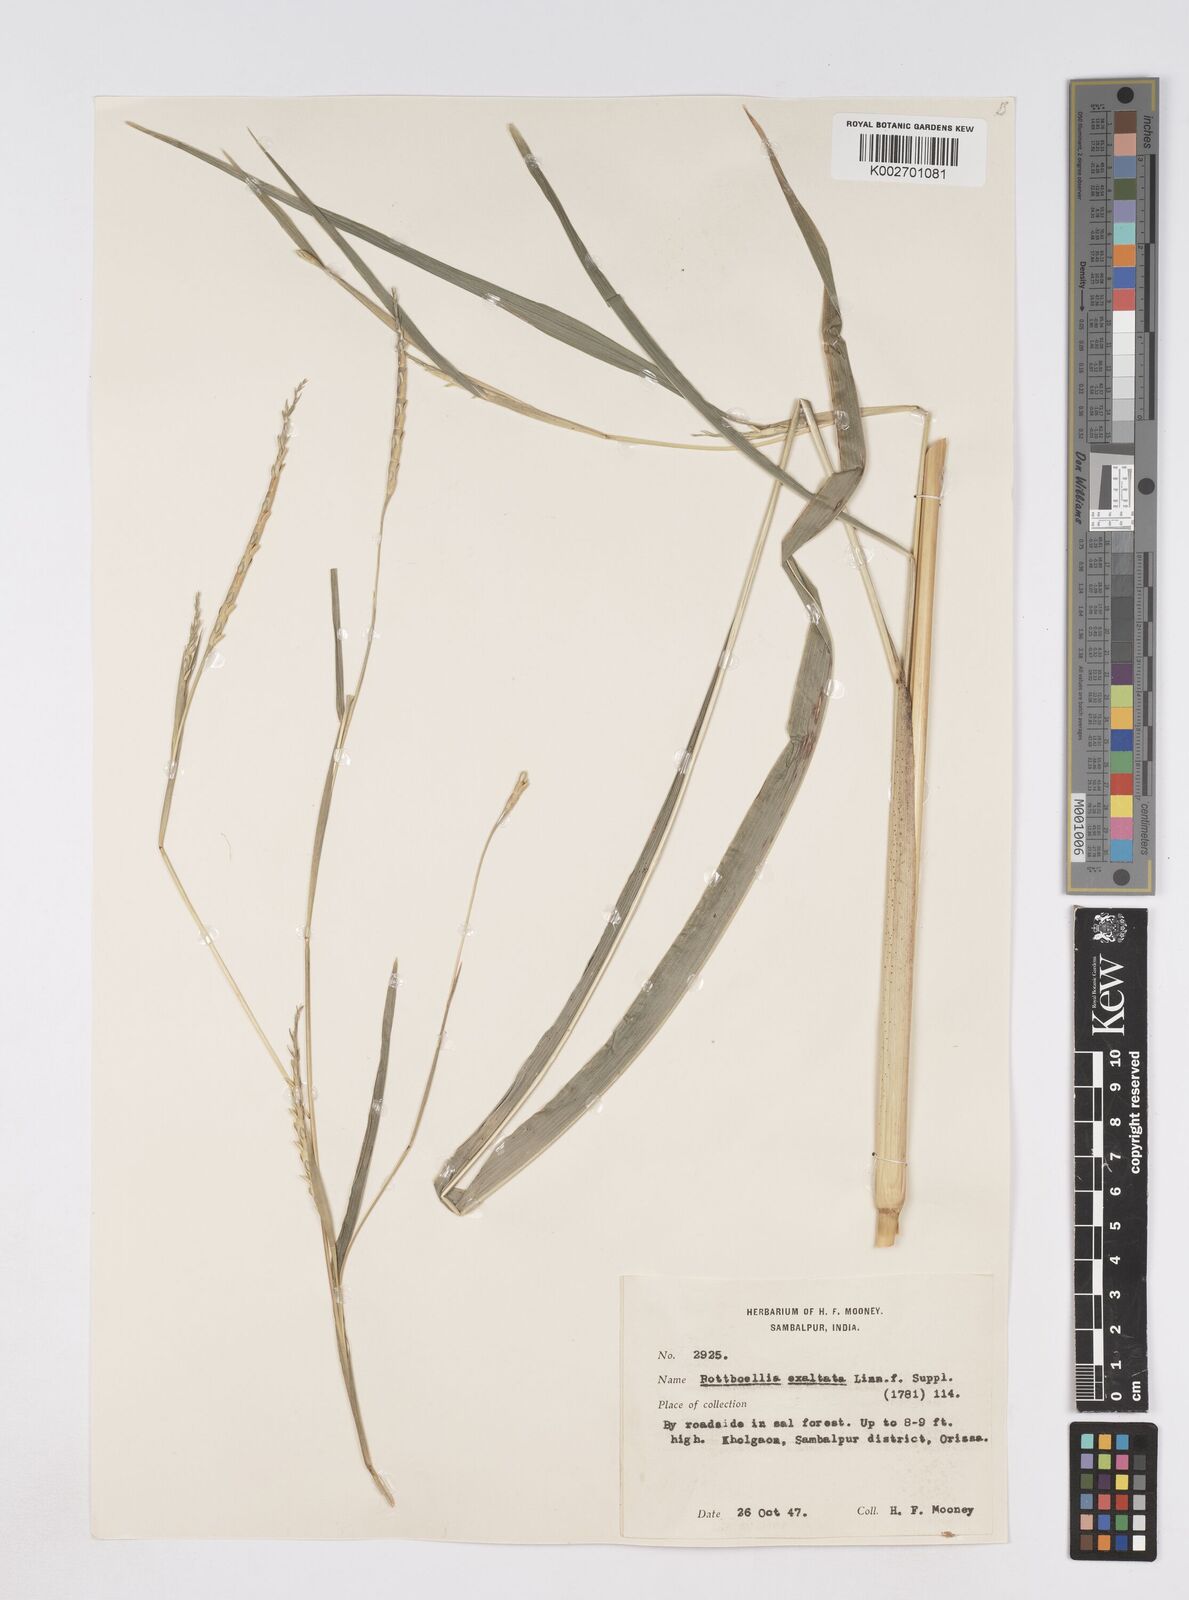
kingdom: Plantae
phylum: Tracheophyta
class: Liliopsida
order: Poales
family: Poaceae
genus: Ophiuros
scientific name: Ophiuros exaltatus
